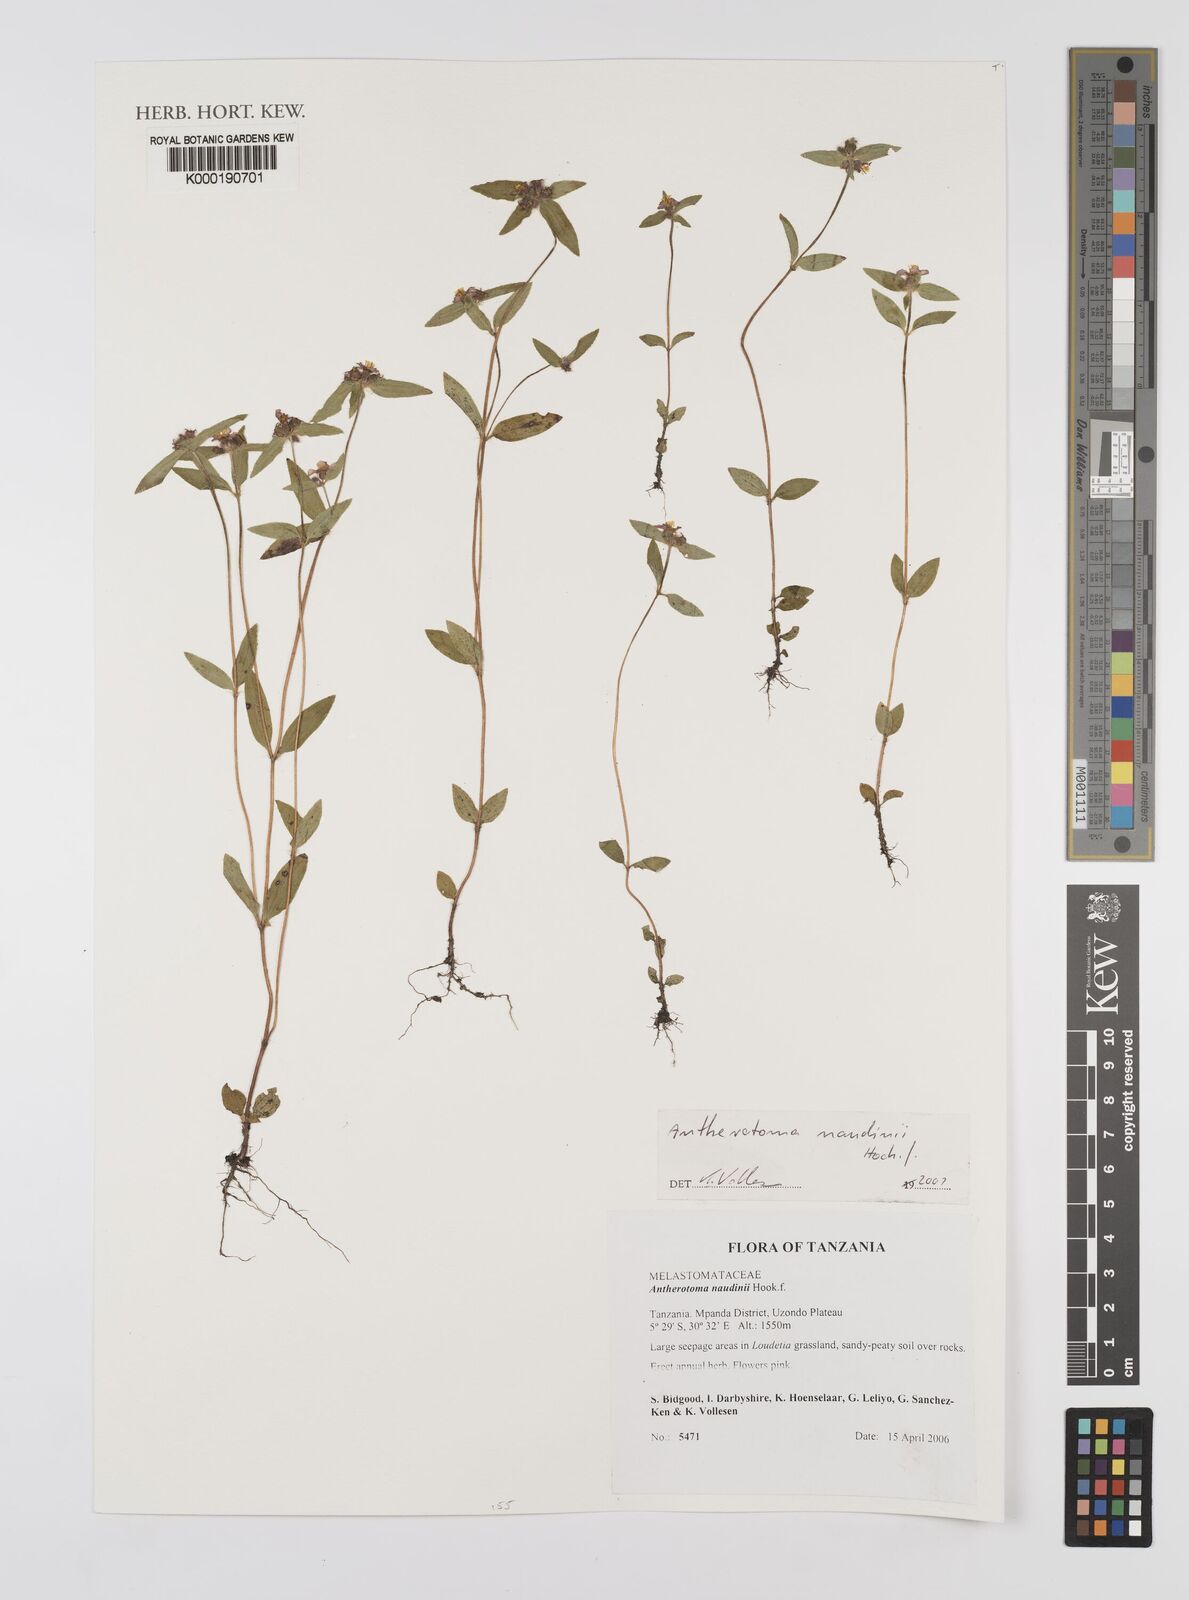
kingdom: Plantae
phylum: Tracheophyta
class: Magnoliopsida
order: Myrtales
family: Melastomataceae
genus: Antherotoma
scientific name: Antherotoma naudinii
